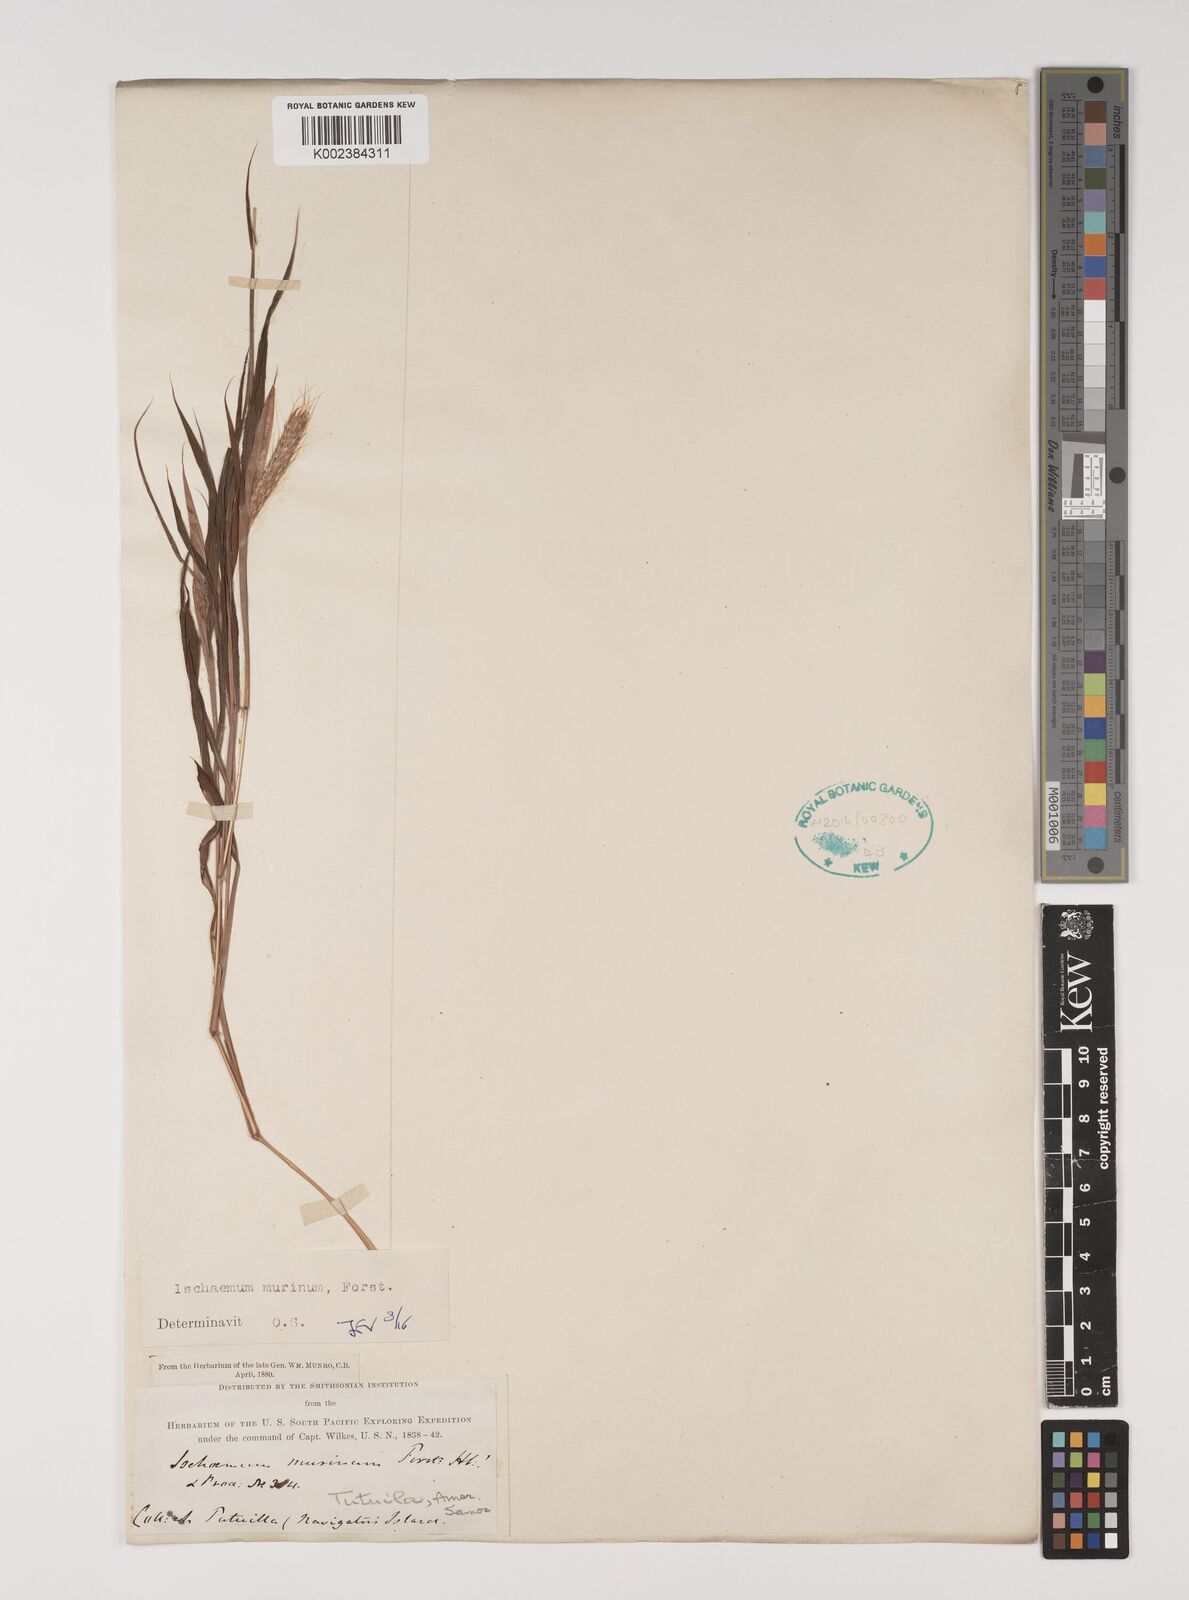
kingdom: Plantae
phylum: Tracheophyta
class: Liliopsida
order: Poales
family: Poaceae
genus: Ischaemum
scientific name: Ischaemum murinum
